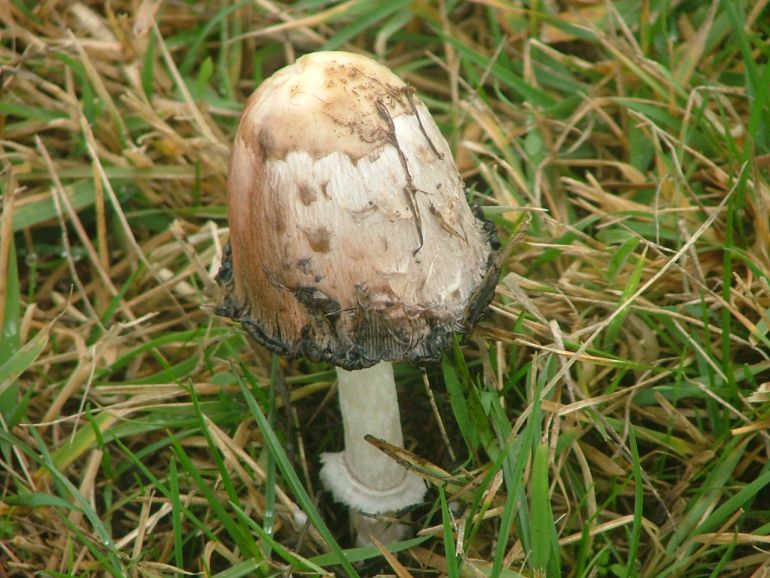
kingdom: Fungi
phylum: Basidiomycota
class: Agaricomycetes
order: Agaricales
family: Agaricaceae
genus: Coprinus
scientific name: Coprinus comatus
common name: stor parykhat
